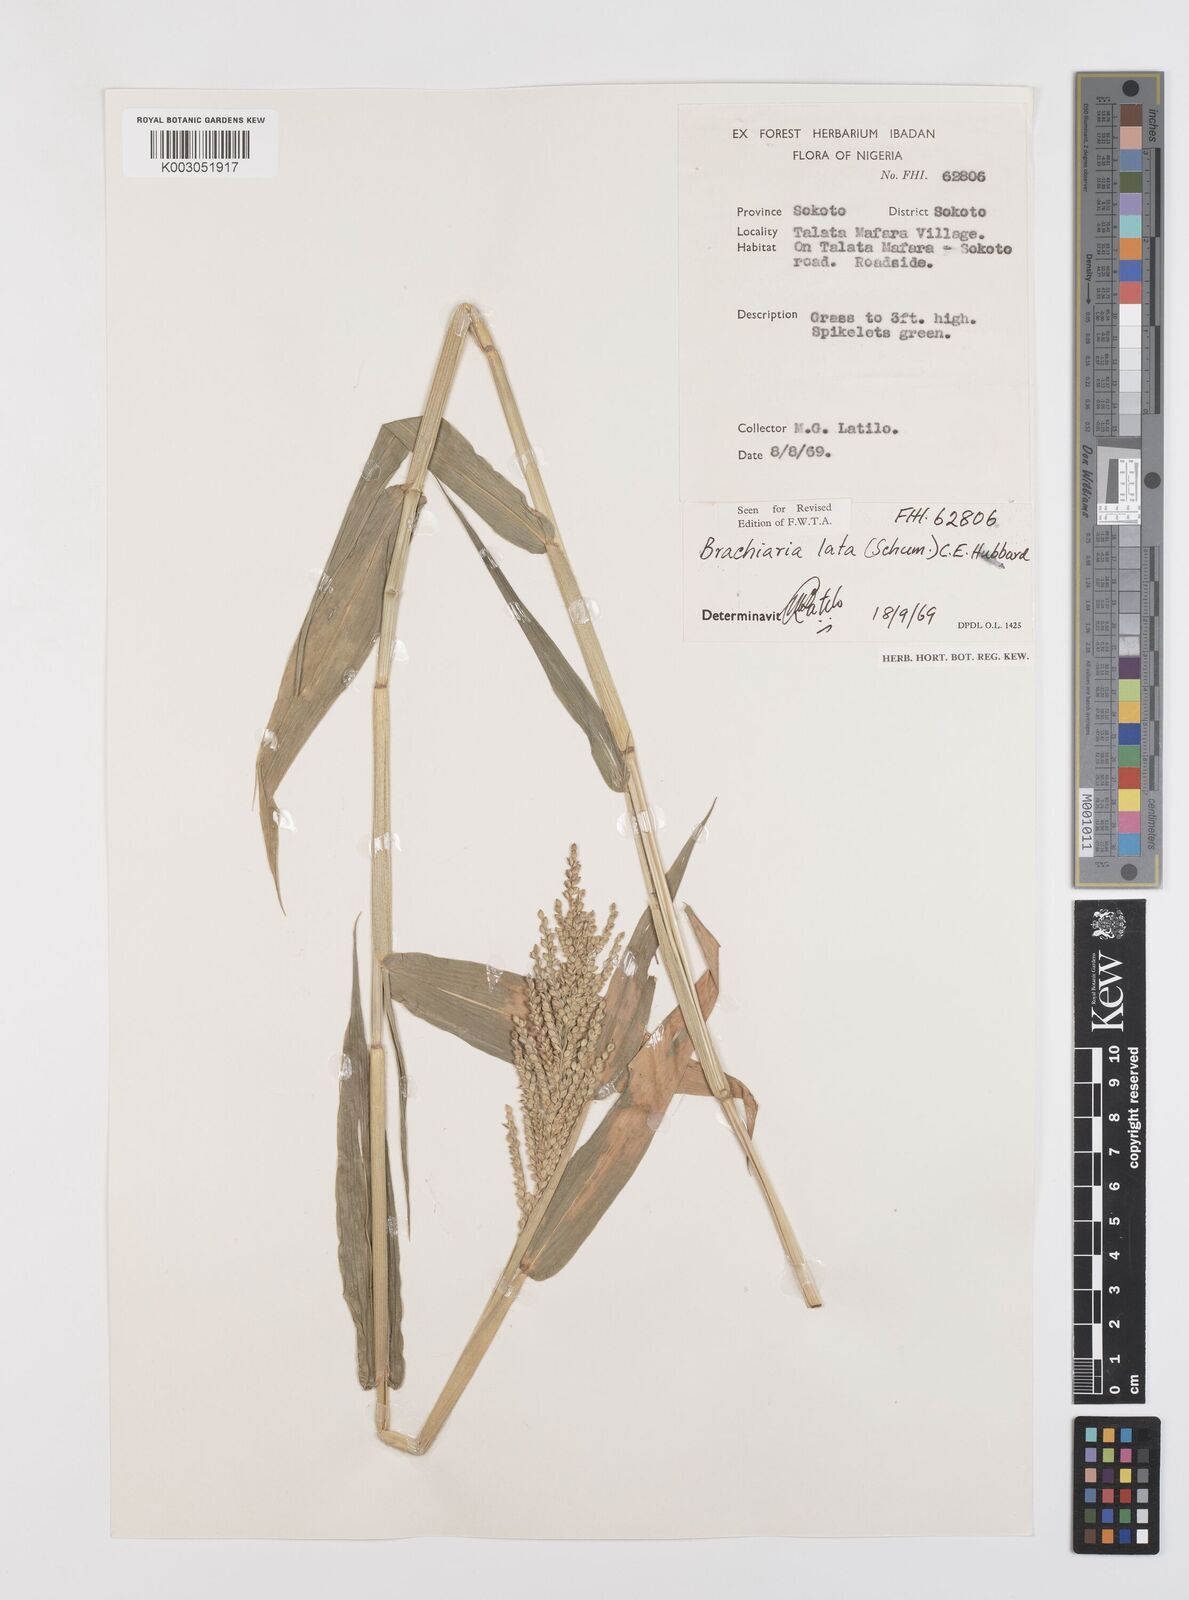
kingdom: Plantae
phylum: Tracheophyta
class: Liliopsida
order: Poales
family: Poaceae
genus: Urochloa
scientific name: Urochloa lata
